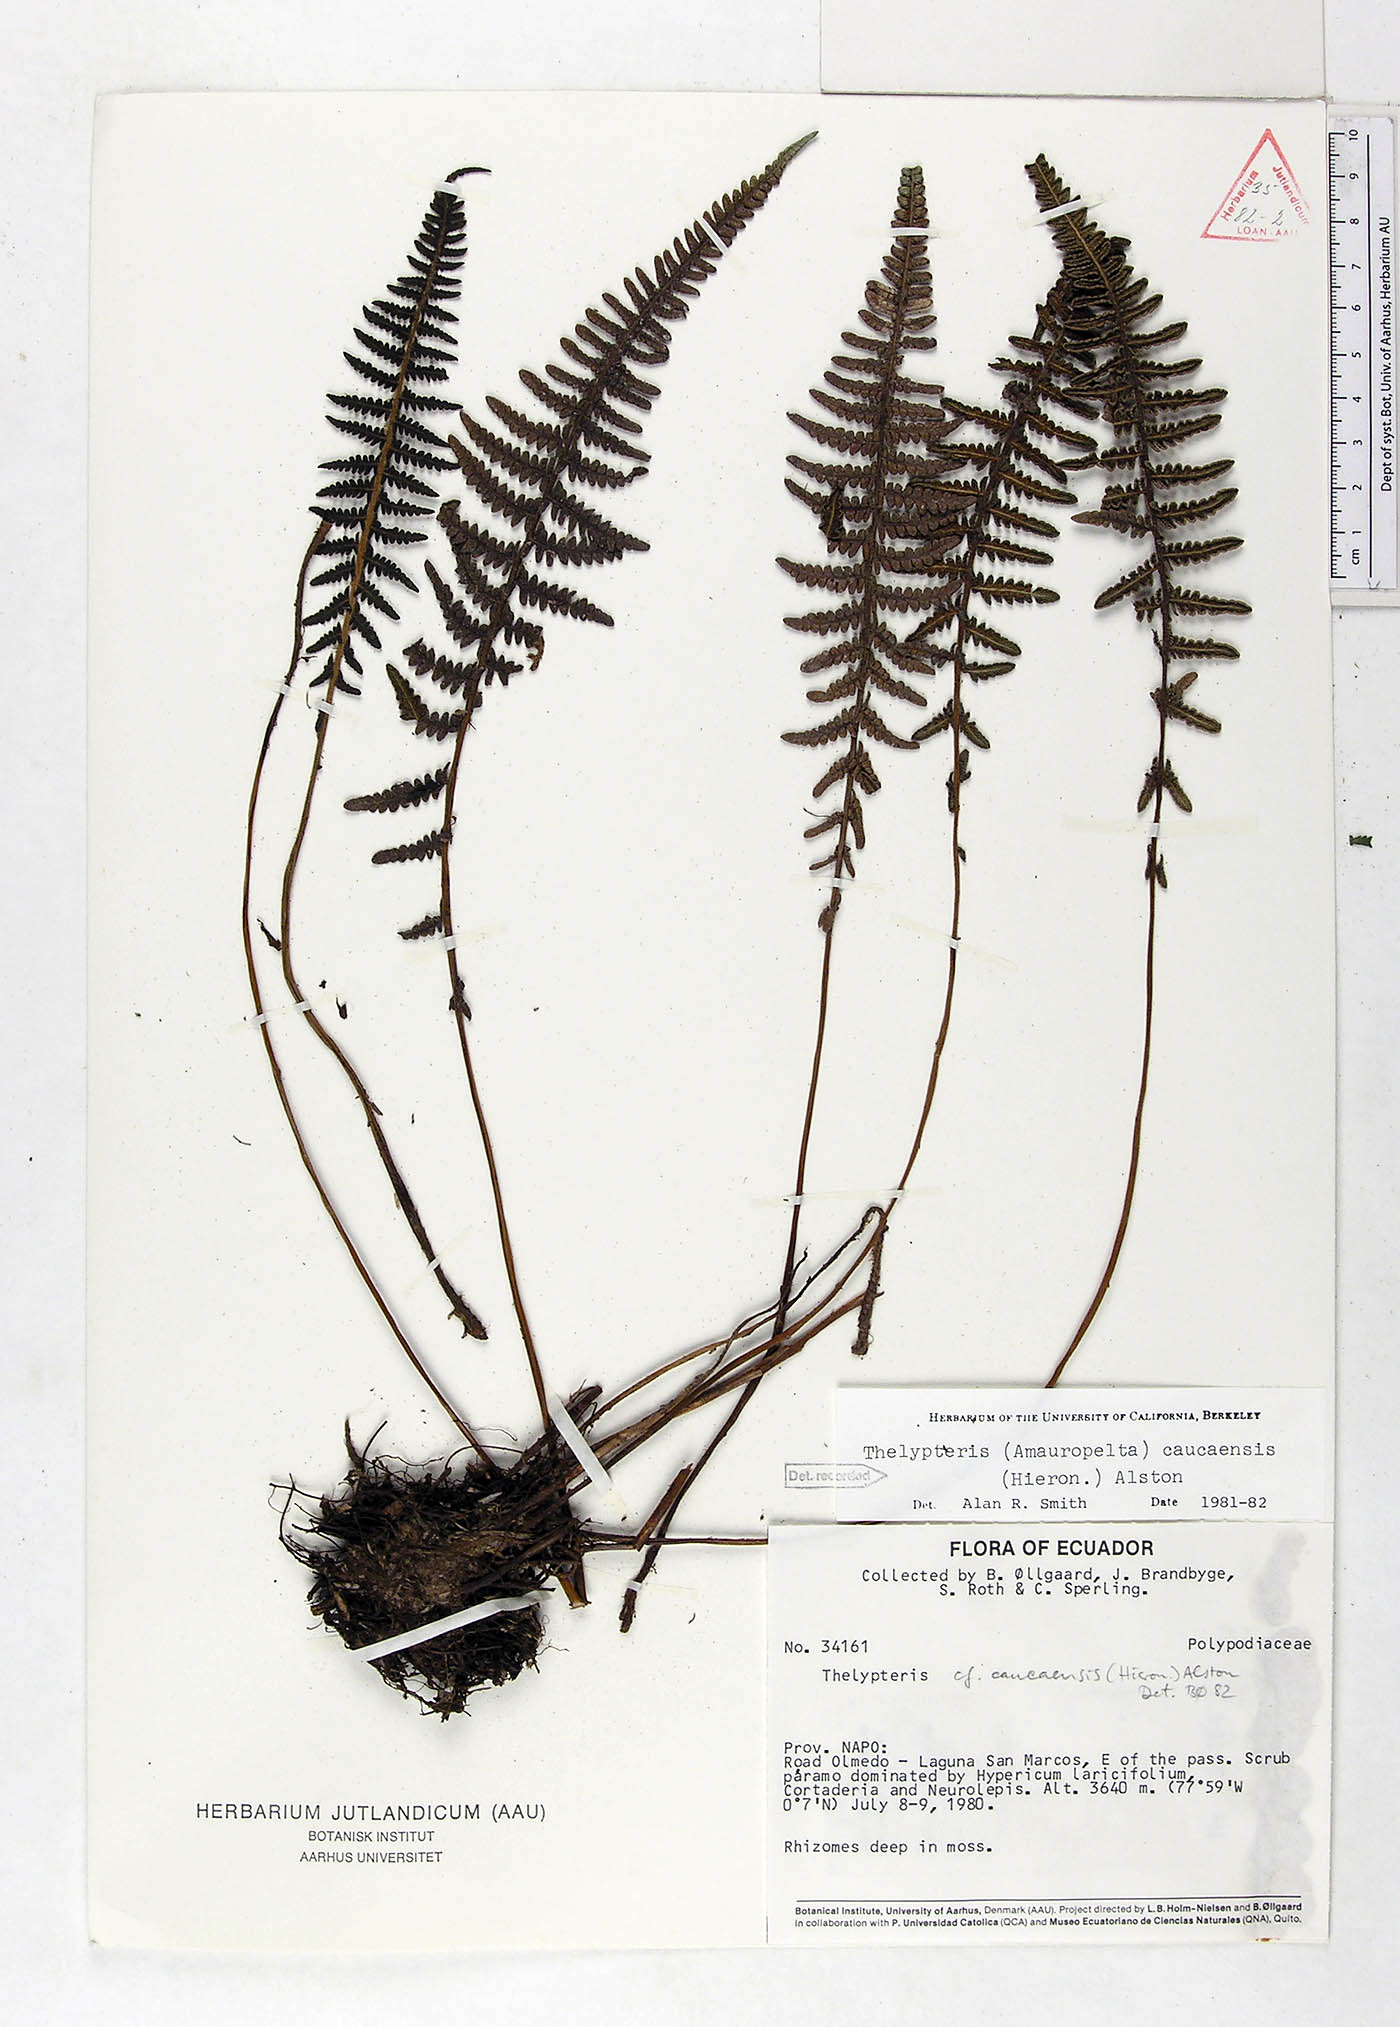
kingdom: Plantae
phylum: Tracheophyta
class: Polypodiopsida
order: Polypodiales
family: Thelypteridaceae
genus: Amauropelta
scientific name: Amauropelta caucaensis
